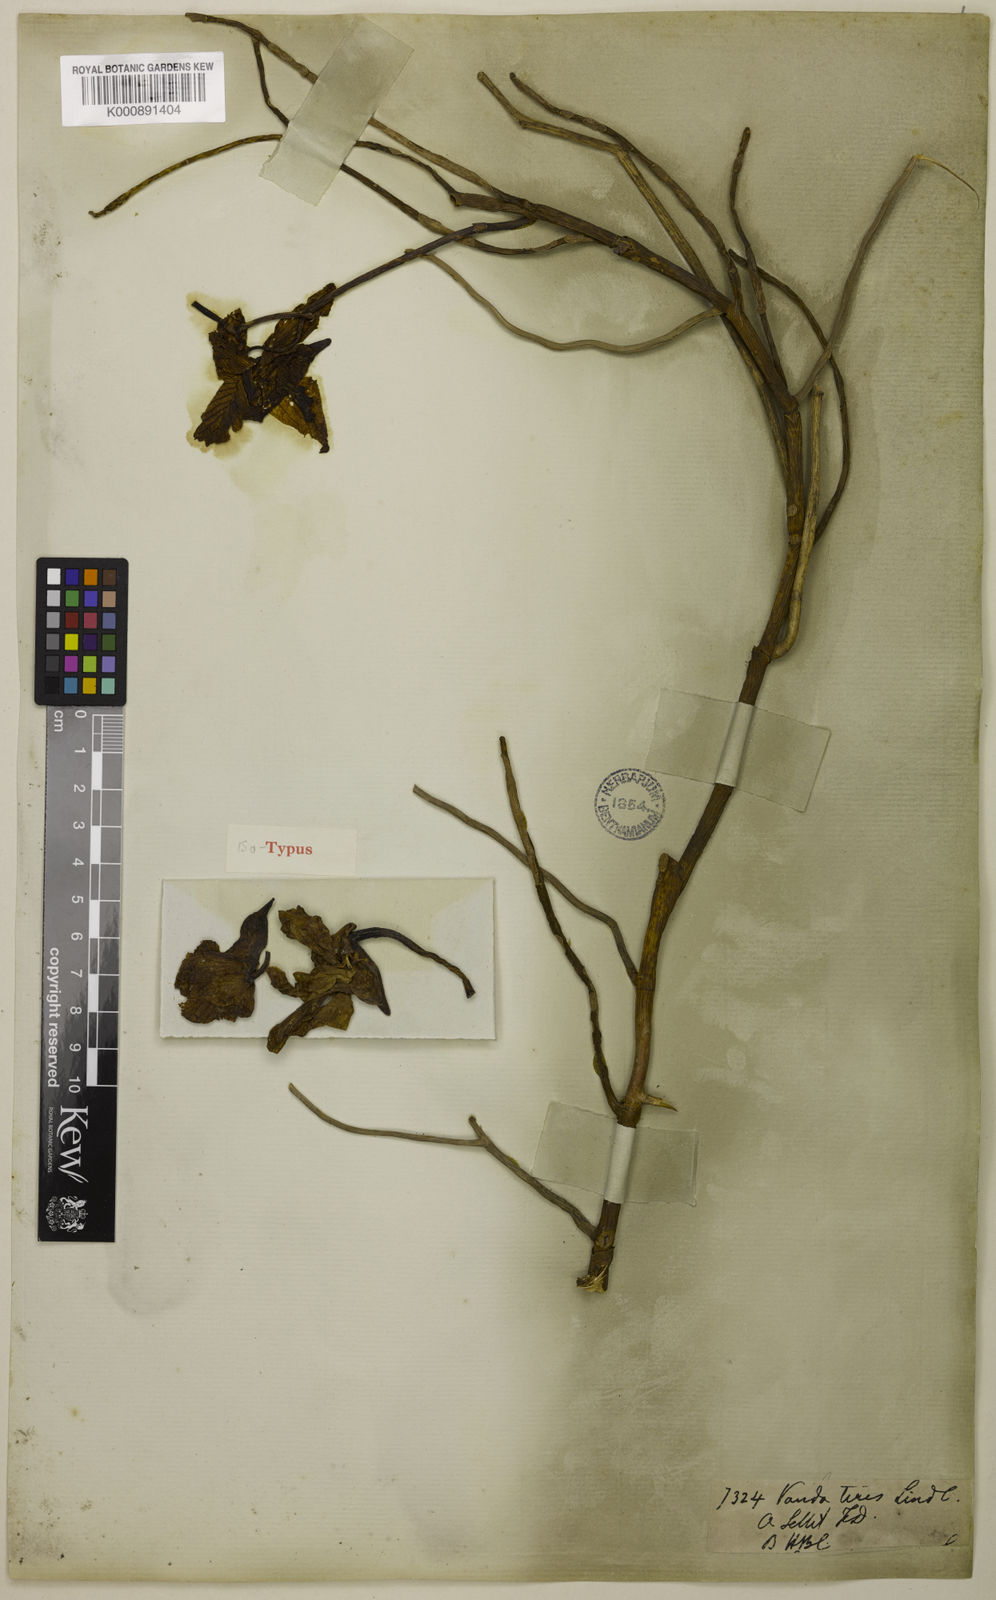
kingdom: Plantae
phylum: Tracheophyta
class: Liliopsida
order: Asparagales
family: Orchidaceae
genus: Papilionanthe
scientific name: Papilionanthe teres
